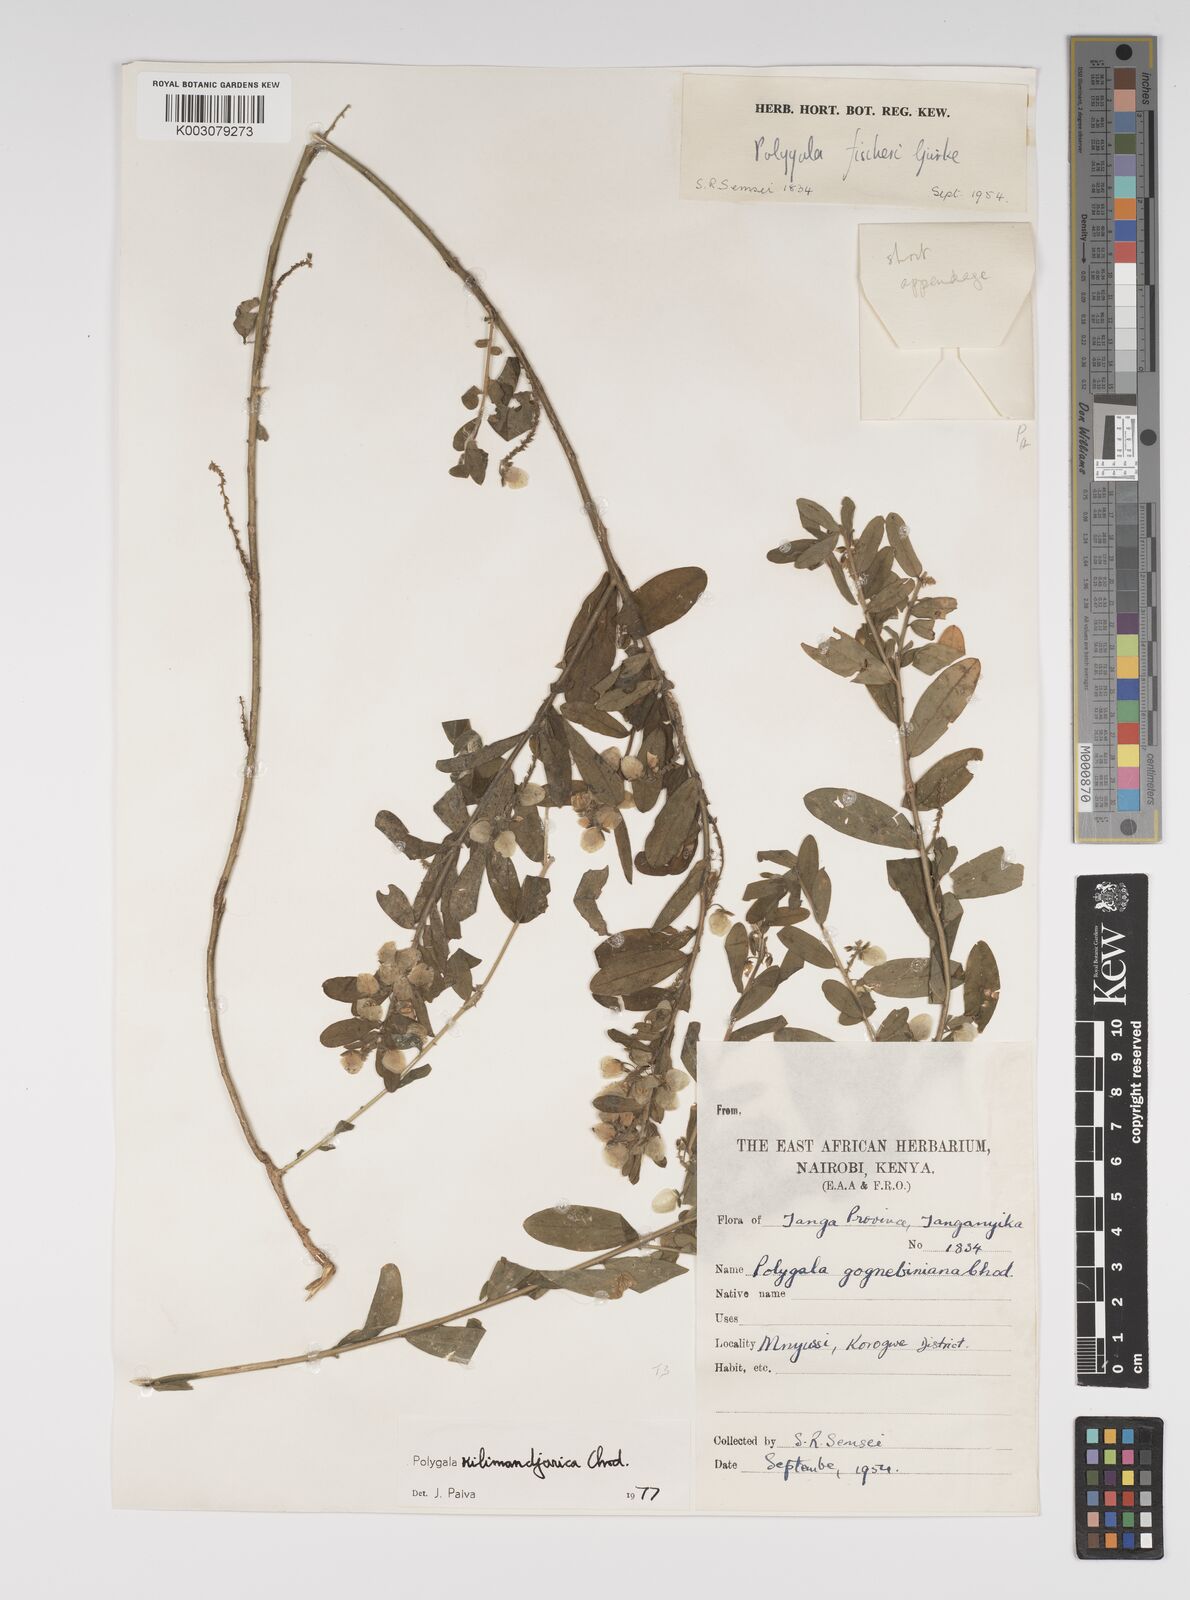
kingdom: Plantae
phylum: Tracheophyta
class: Magnoliopsida
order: Fabales
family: Polygalaceae
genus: Polygala
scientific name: Polygala kilimandjarica
